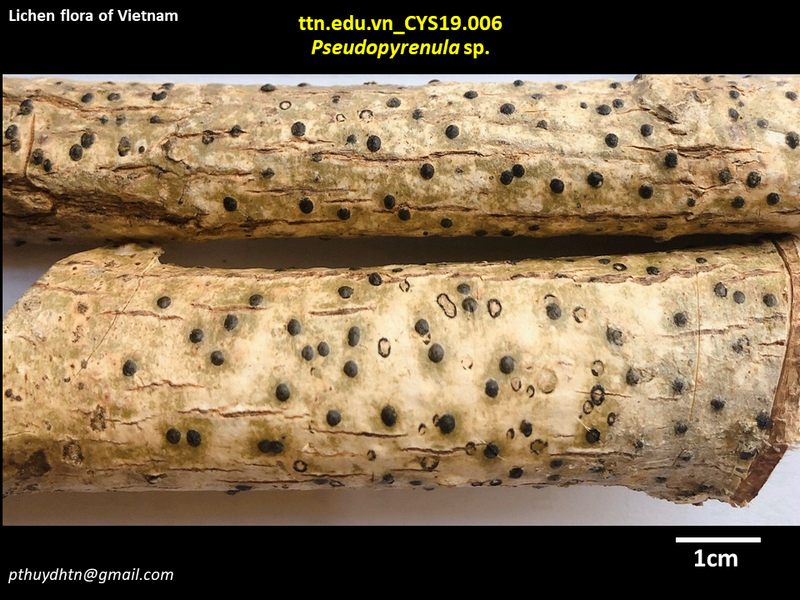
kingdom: Fungi
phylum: Ascomycota
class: Dothideomycetes
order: Trypetheliales
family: Trypetheliaceae
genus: Pseudopyrenula
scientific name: Pseudopyrenula
